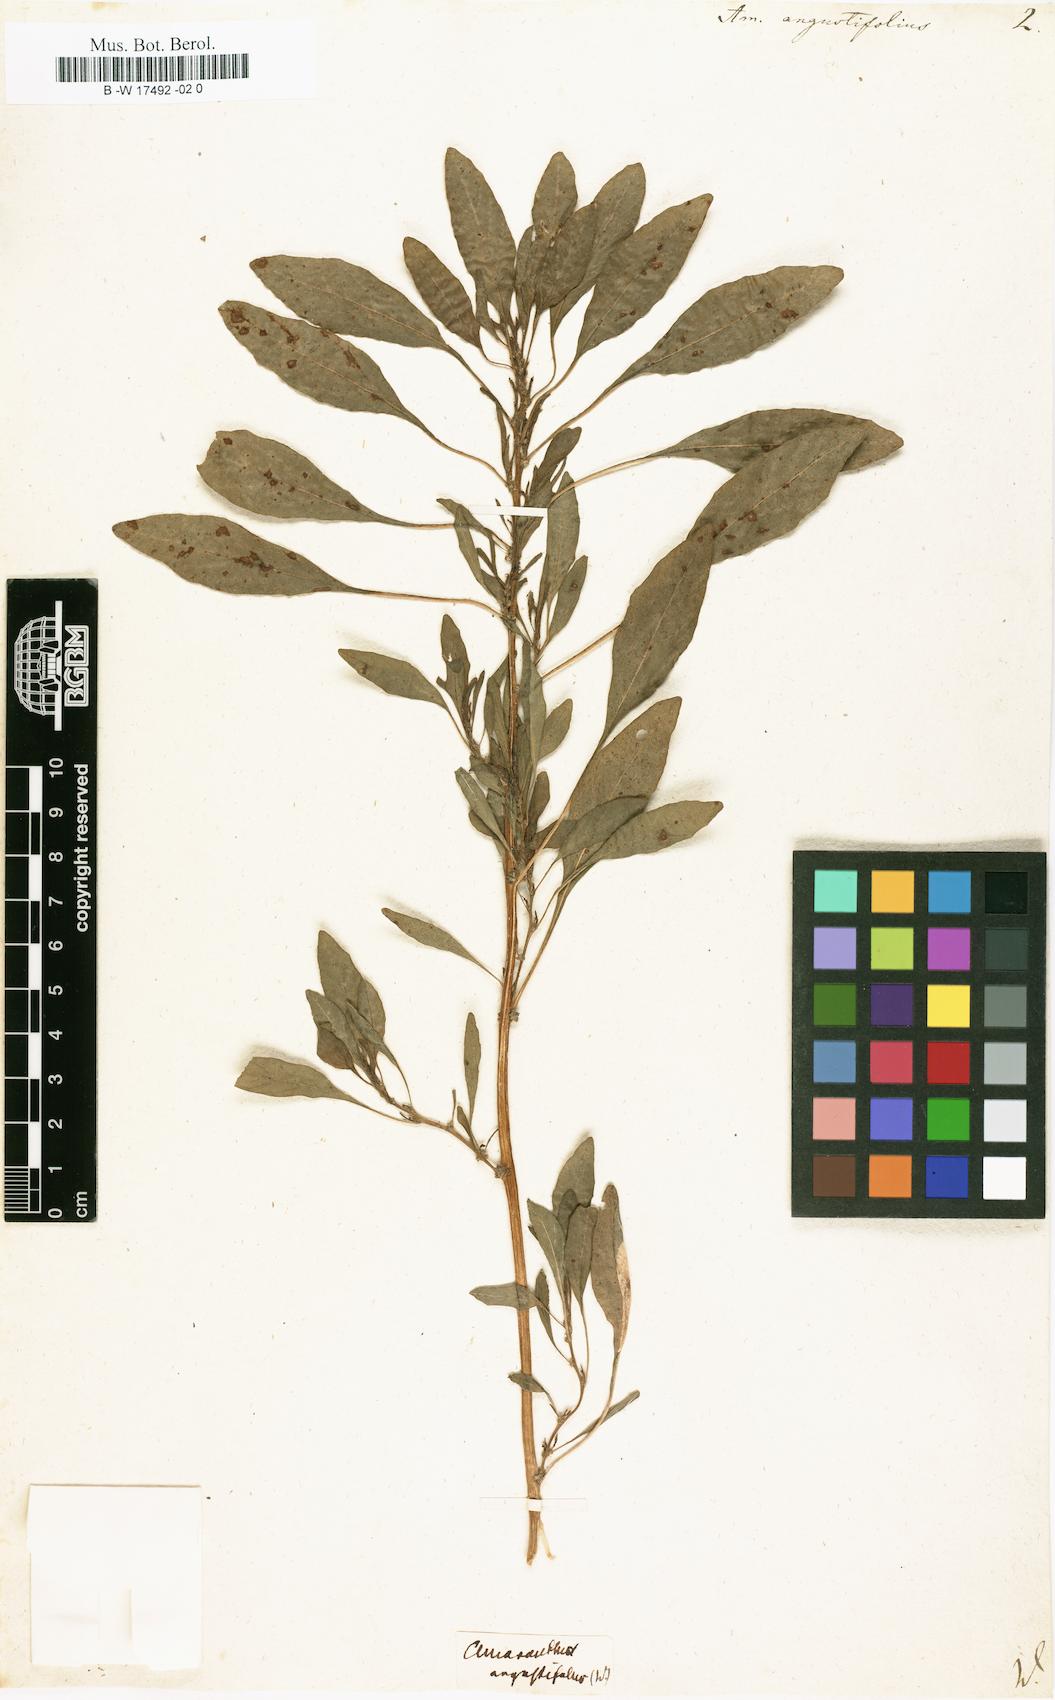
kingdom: Plantae
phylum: Tracheophyta
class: Magnoliopsida
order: Caryophyllales
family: Amaranthaceae
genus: Amaranthus
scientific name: Amaranthus graecizans
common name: Mediterranean amaranth
